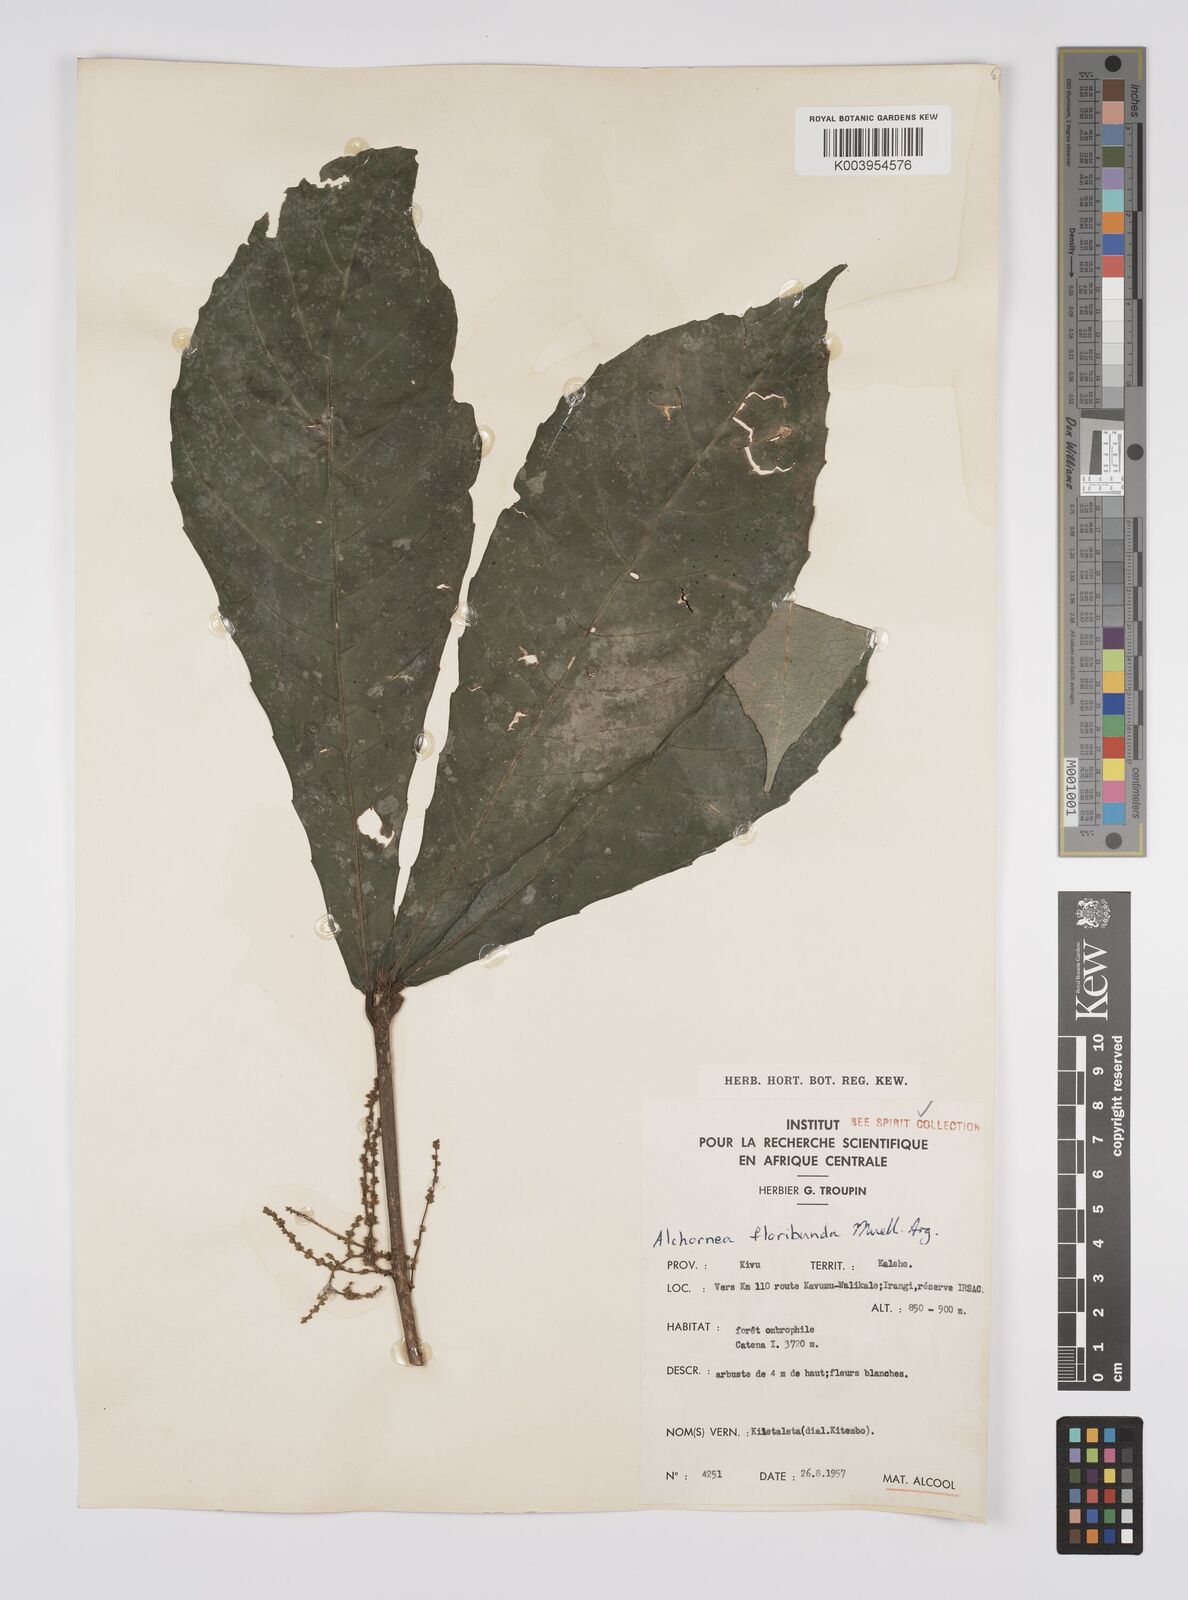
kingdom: Plantae
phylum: Tracheophyta
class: Magnoliopsida
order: Malpighiales
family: Euphorbiaceae
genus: Alchornea
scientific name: Alchornea floribunda
